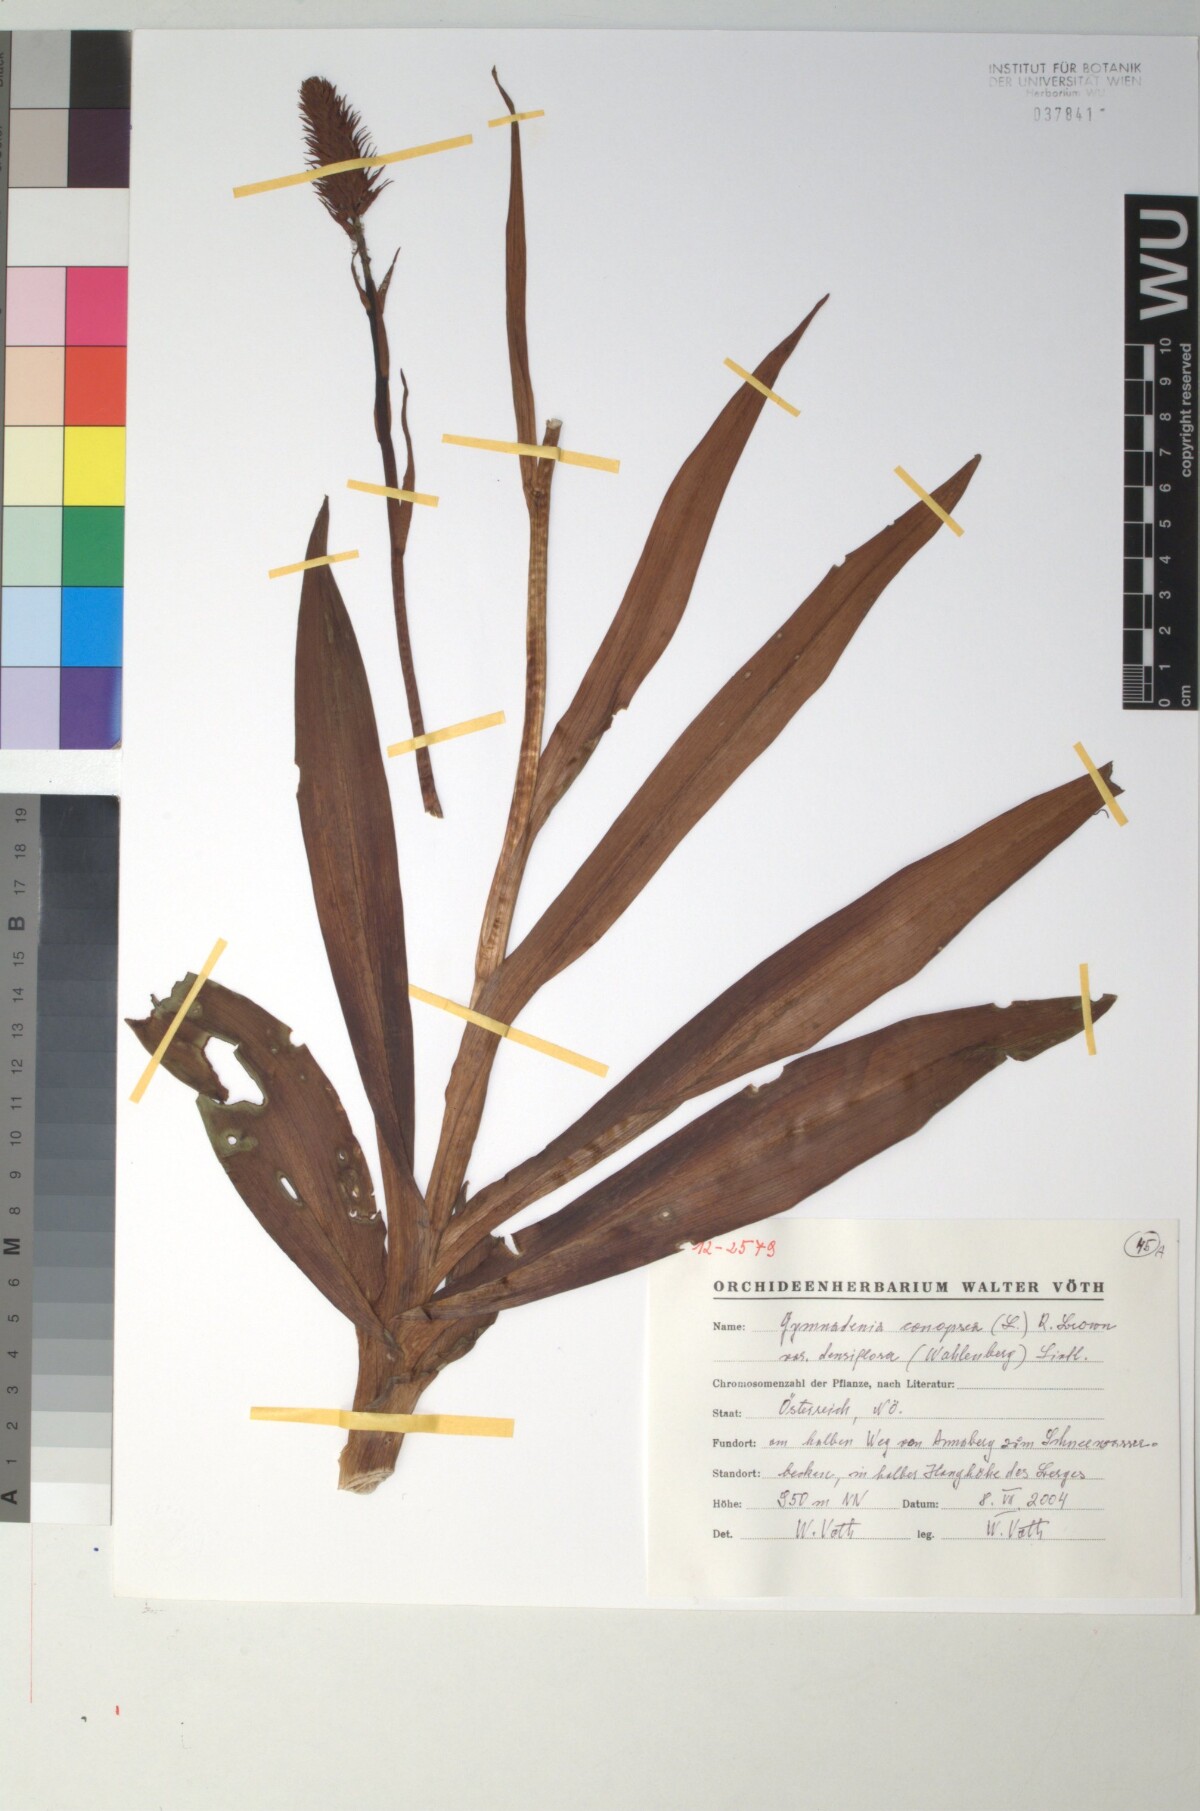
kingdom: Plantae
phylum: Tracheophyta
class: Liliopsida
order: Asparagales
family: Orchidaceae
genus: Gymnadenia
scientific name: Gymnadenia conopsea
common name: Fragrant orchid
